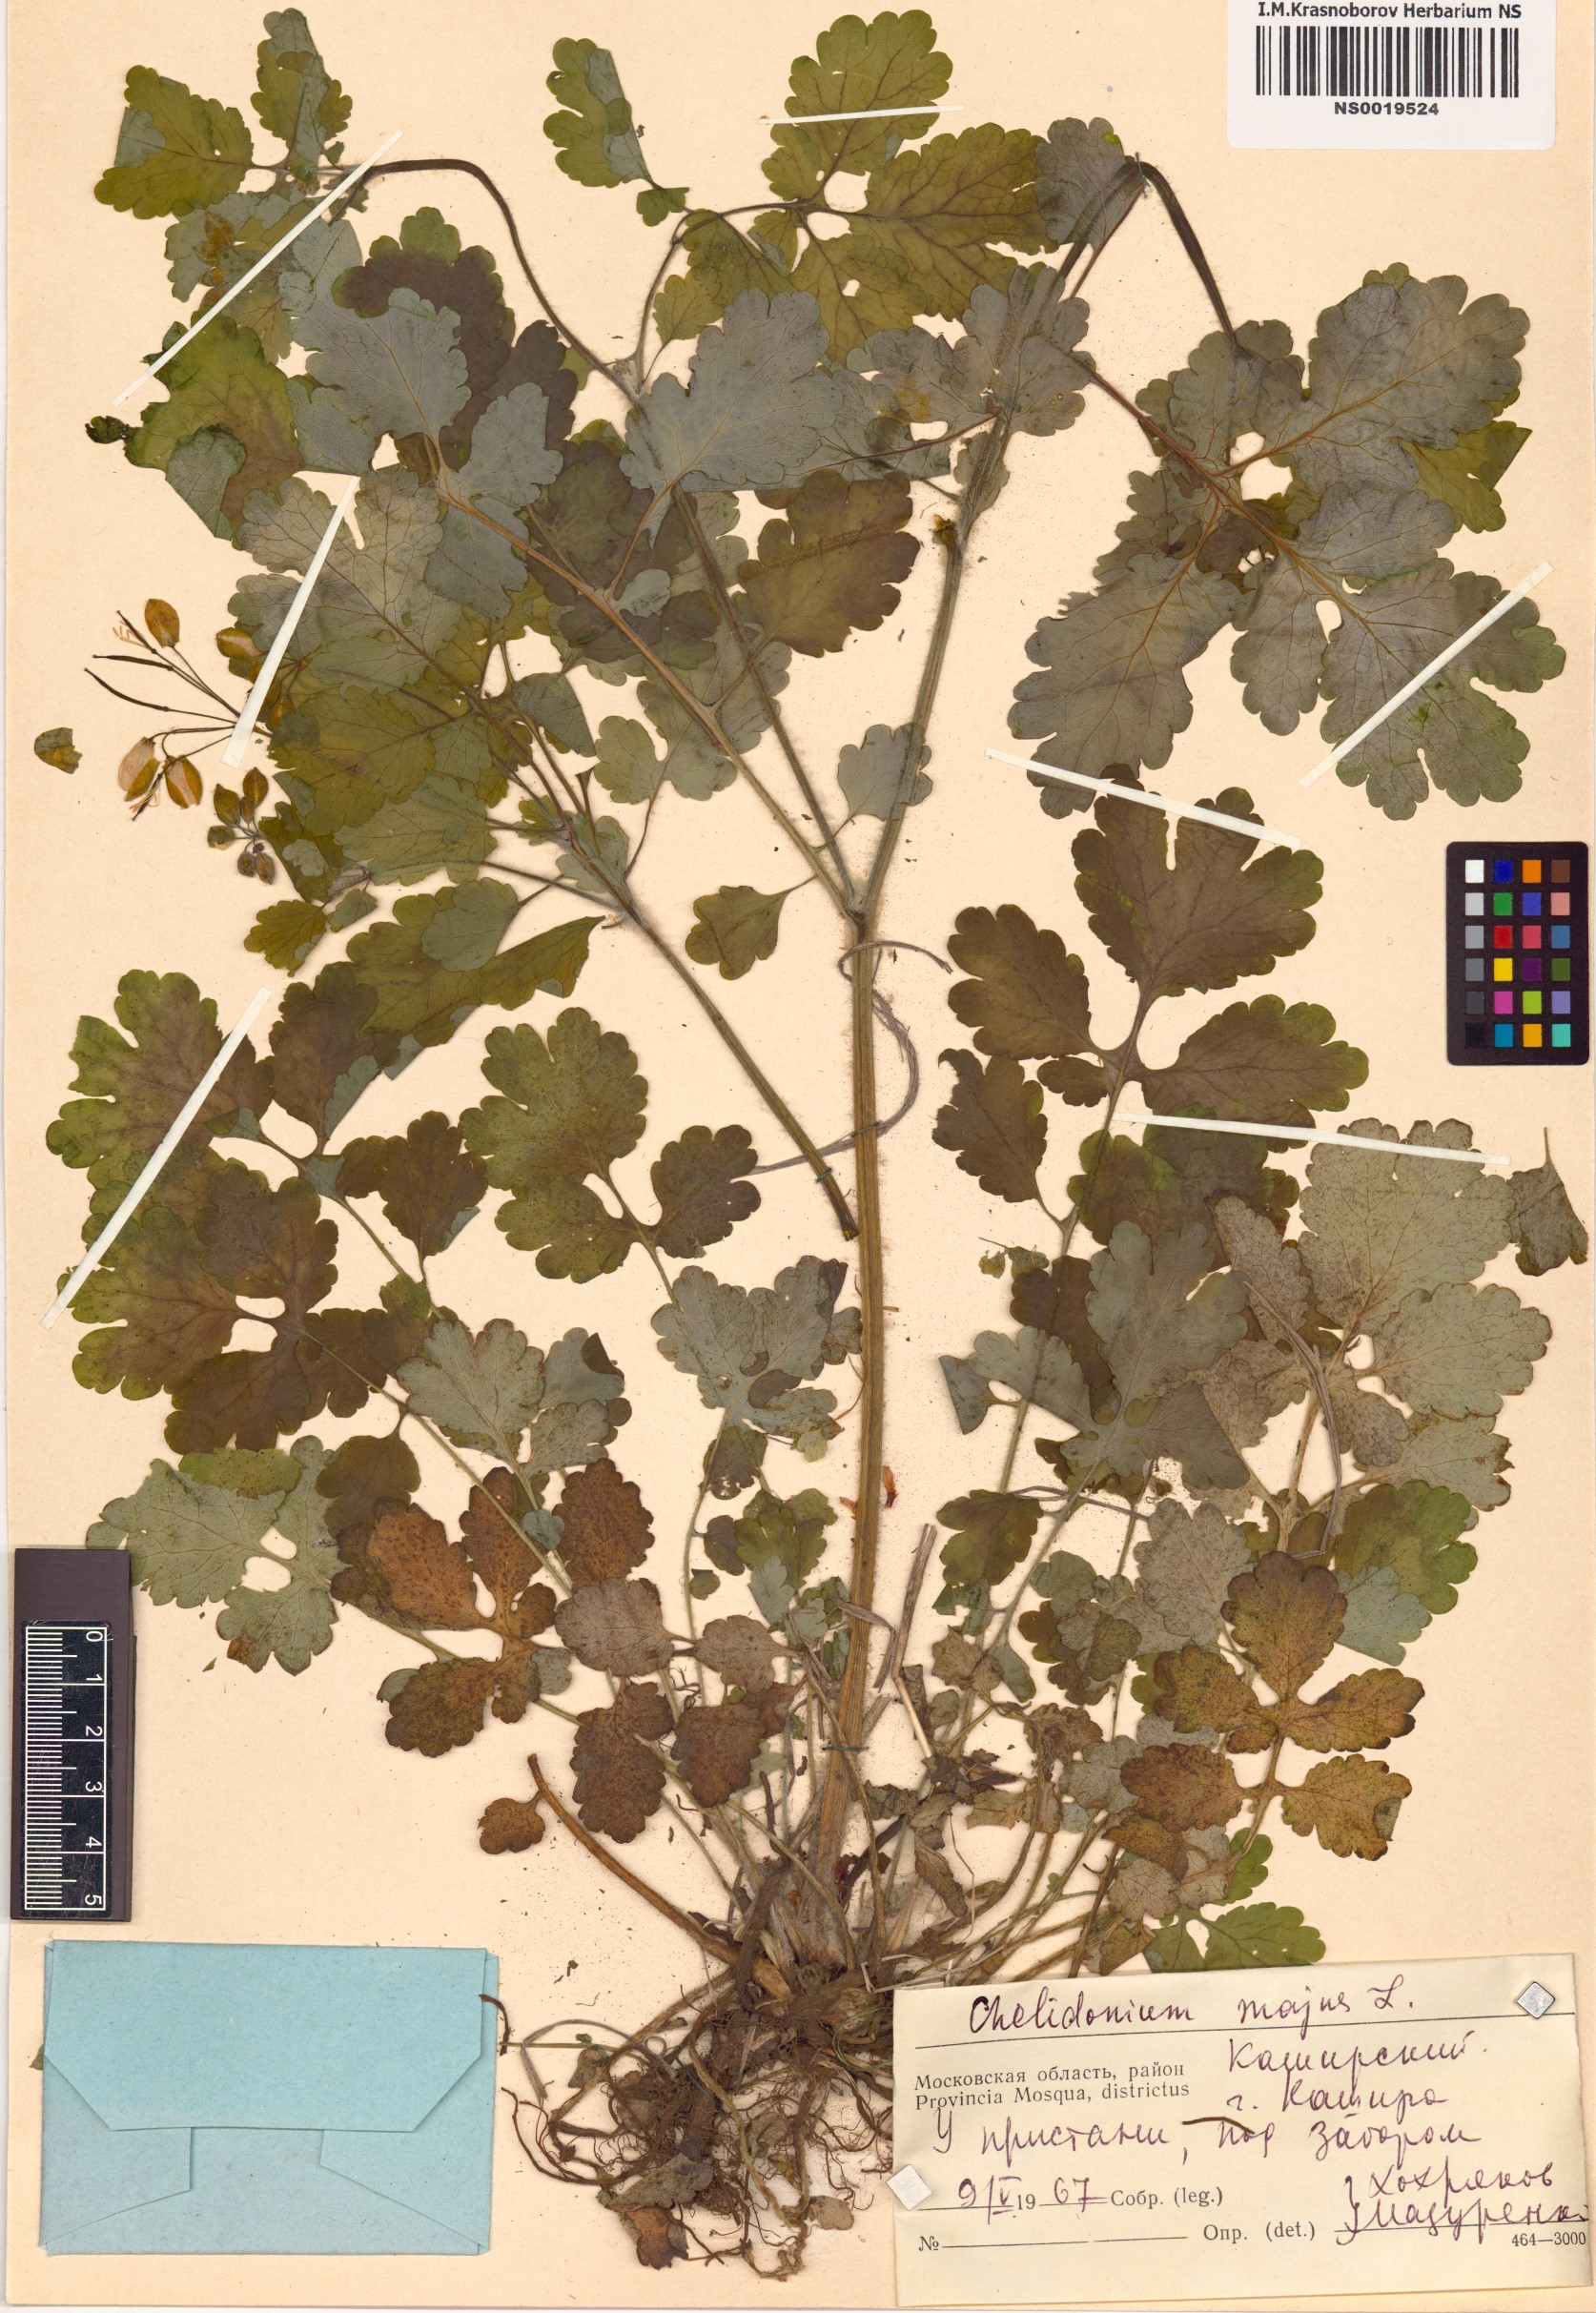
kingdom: Plantae
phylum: Tracheophyta
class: Magnoliopsida
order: Ranunculales
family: Papaveraceae
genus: Chelidonium
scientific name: Chelidonium majus
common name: Greater celandine
